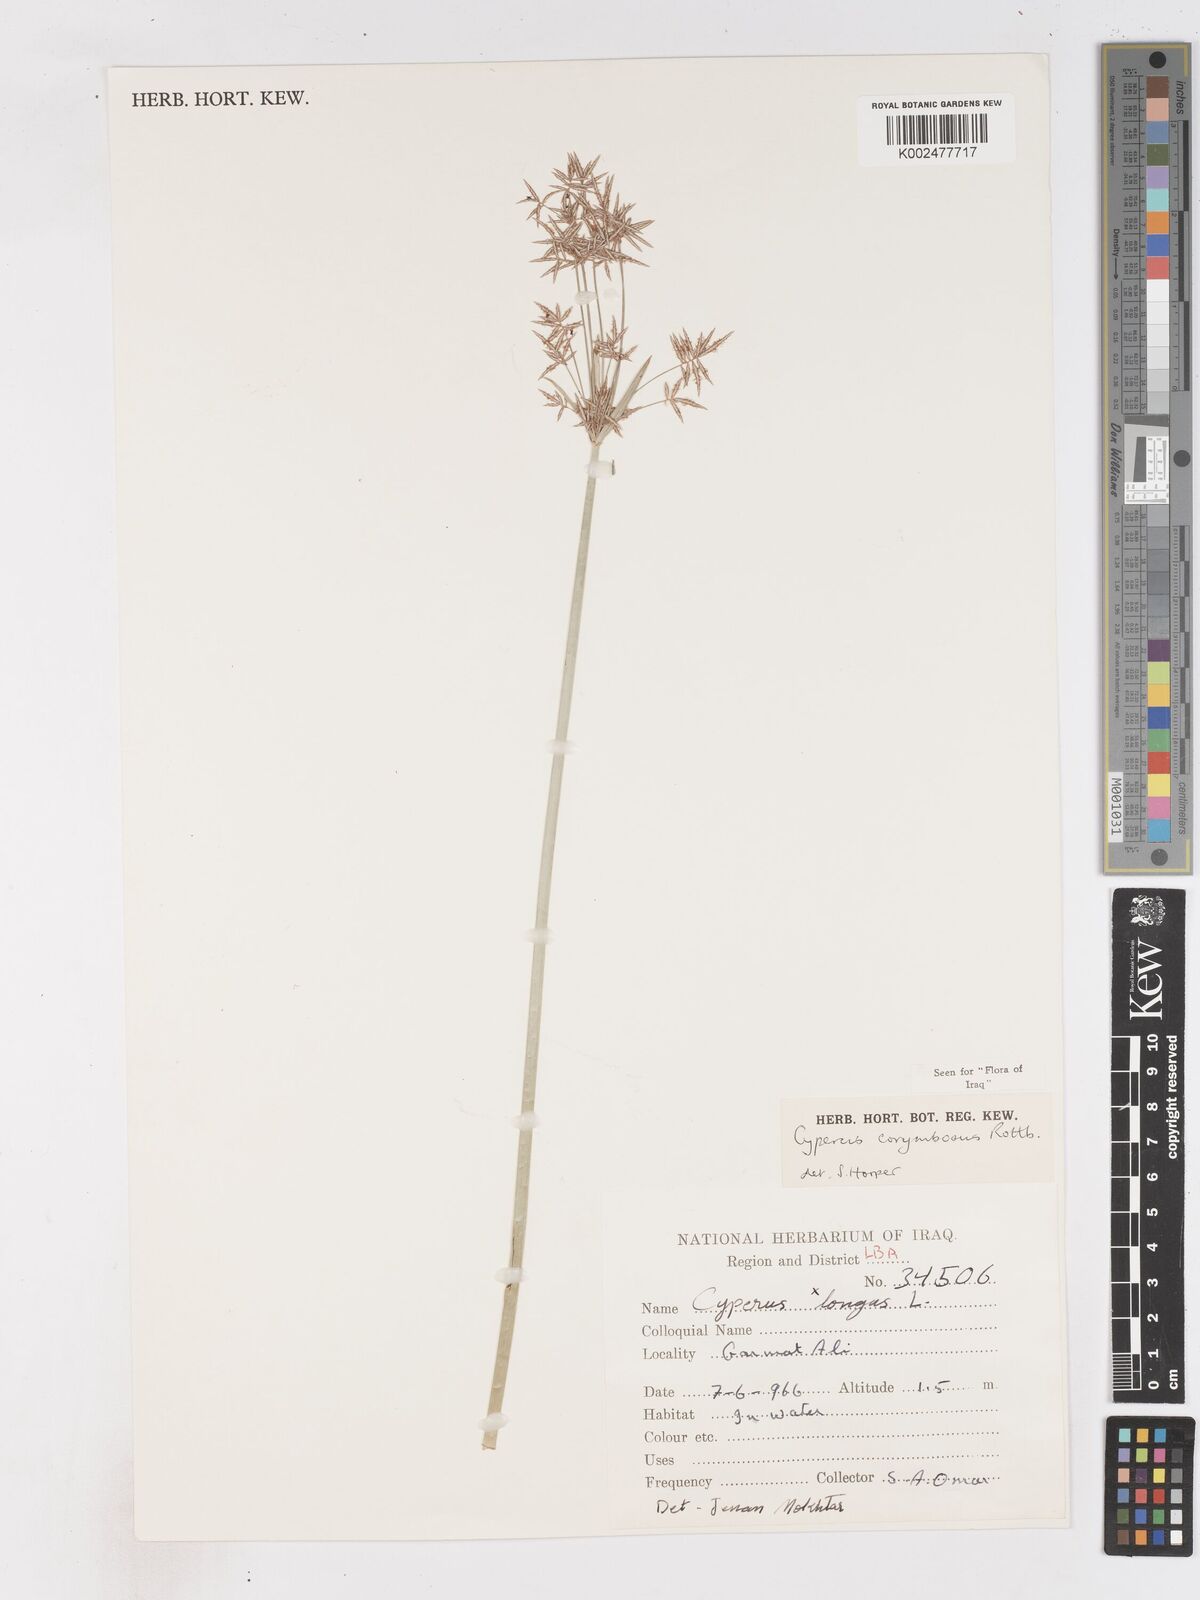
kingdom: Plantae
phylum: Tracheophyta
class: Liliopsida
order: Poales
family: Cyperaceae
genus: Cyperus
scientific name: Cyperus corymbosus
